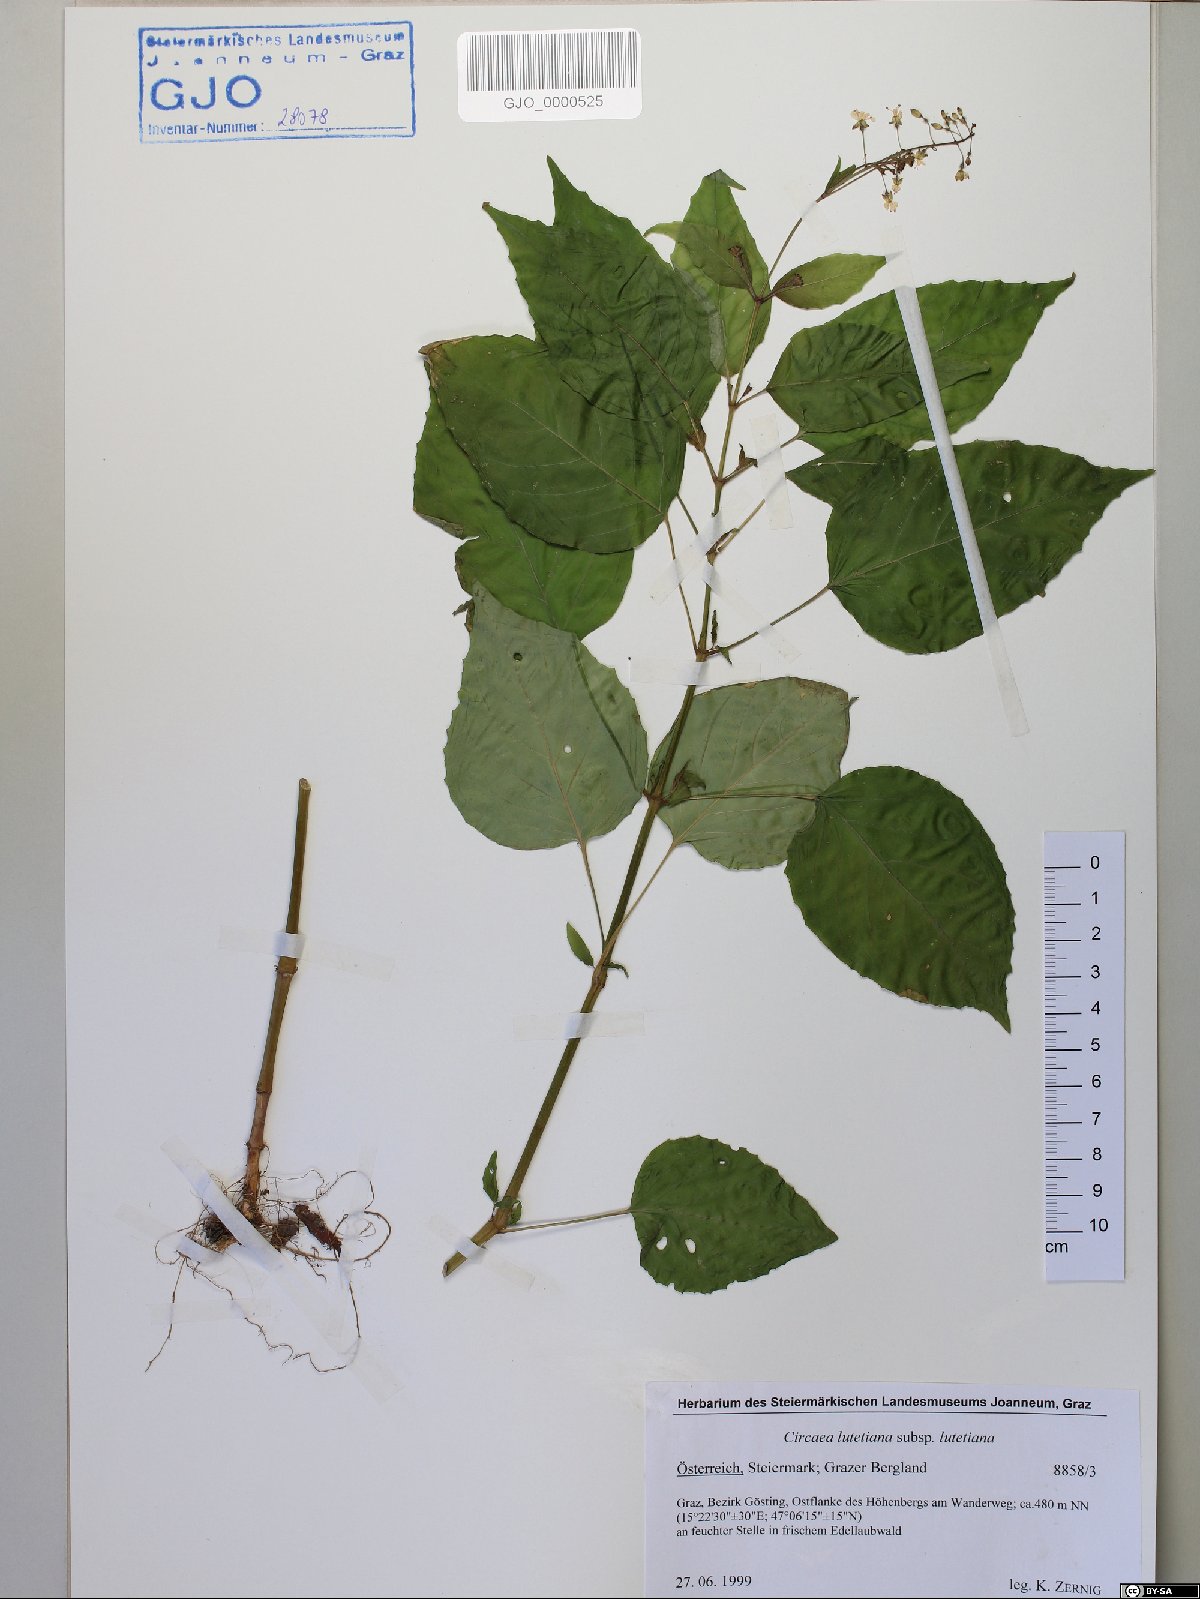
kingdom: Plantae
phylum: Tracheophyta
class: Magnoliopsida
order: Myrtales
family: Onagraceae
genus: Circaea
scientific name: Circaea lutetiana
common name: Enchanter's-nightshade
